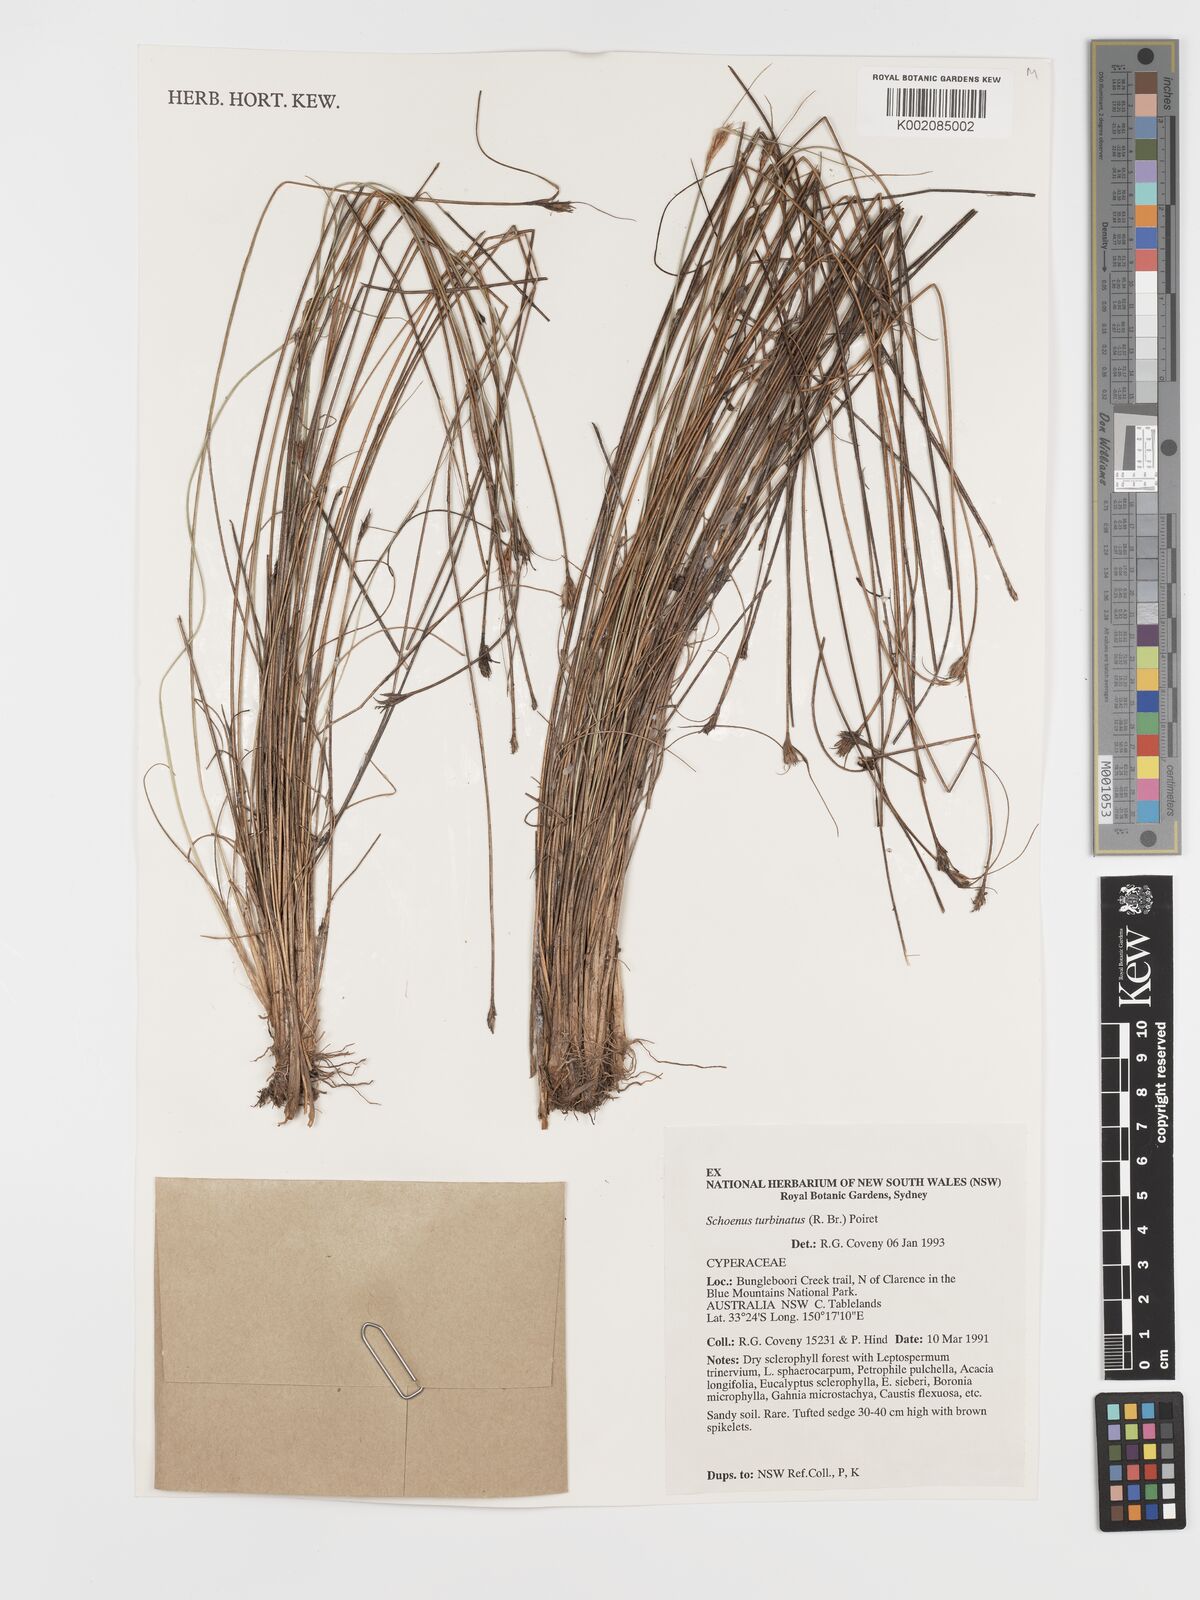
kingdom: Plantae
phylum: Tracheophyta
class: Liliopsida
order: Poales
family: Cyperaceae
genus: Schoenus
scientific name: Schoenus turbinatus
